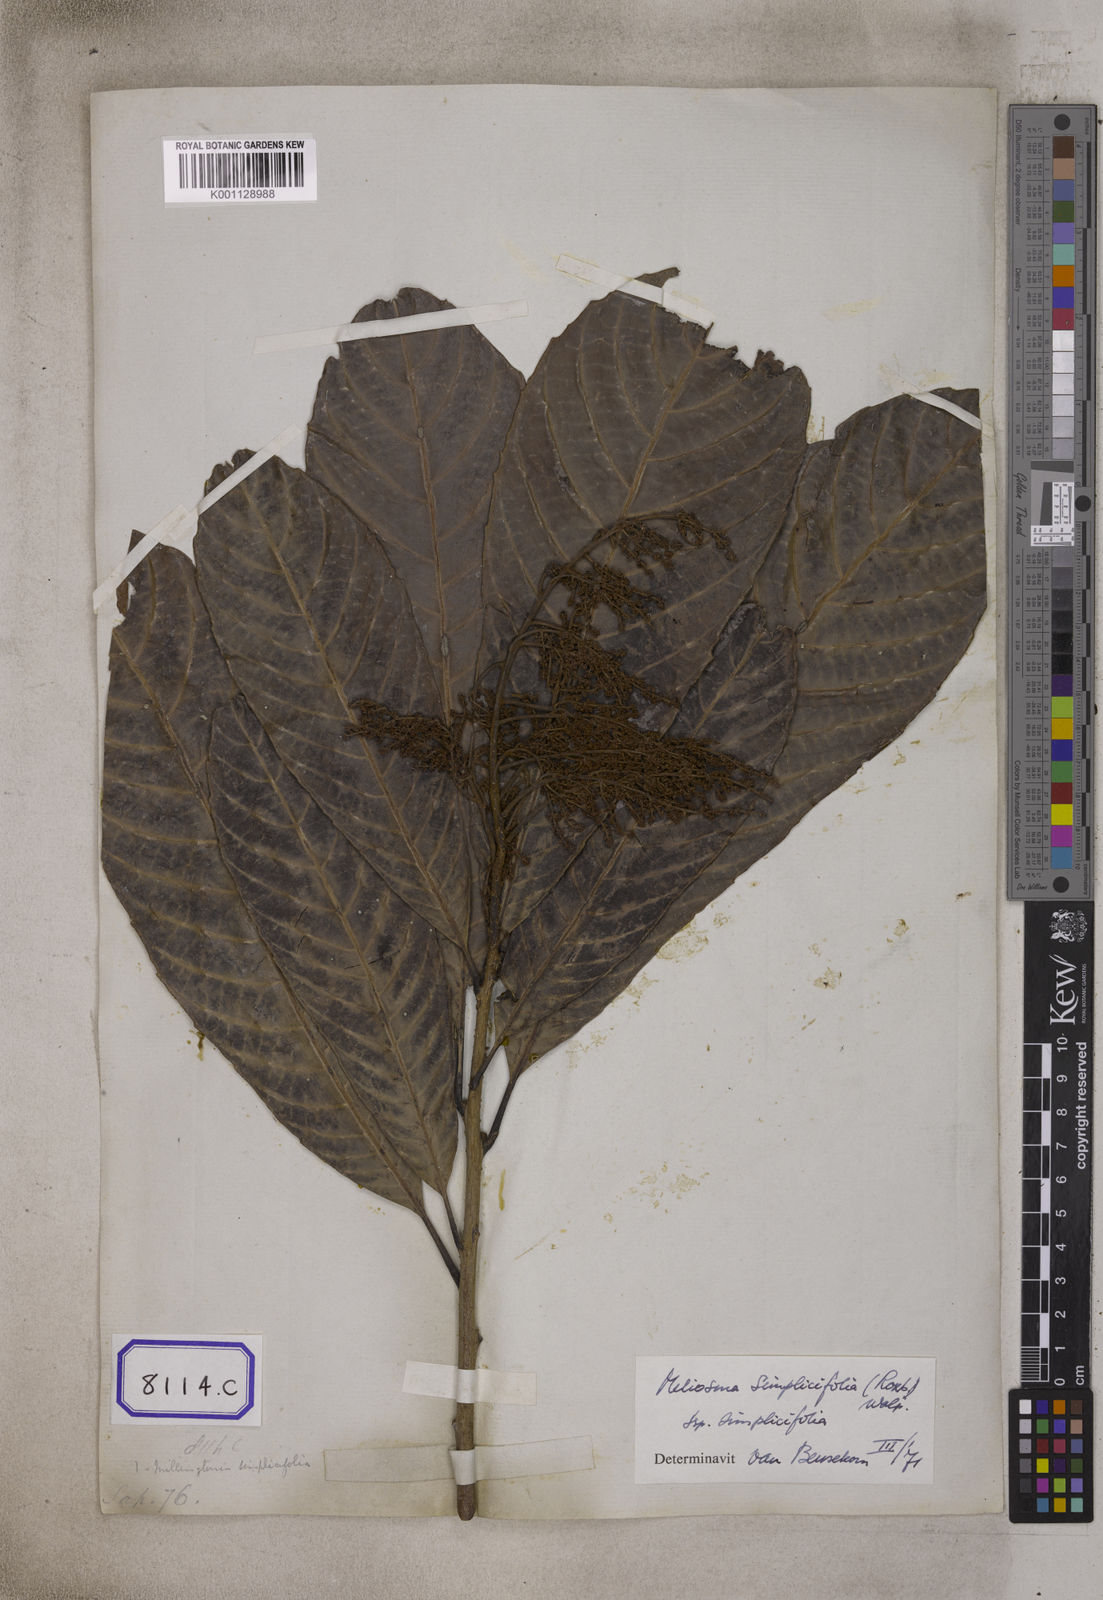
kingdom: Plantae
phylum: Tracheophyta
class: Magnoliopsida
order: Proteales
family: Sabiaceae
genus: Meliosma
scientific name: Meliosma simplicifolia
